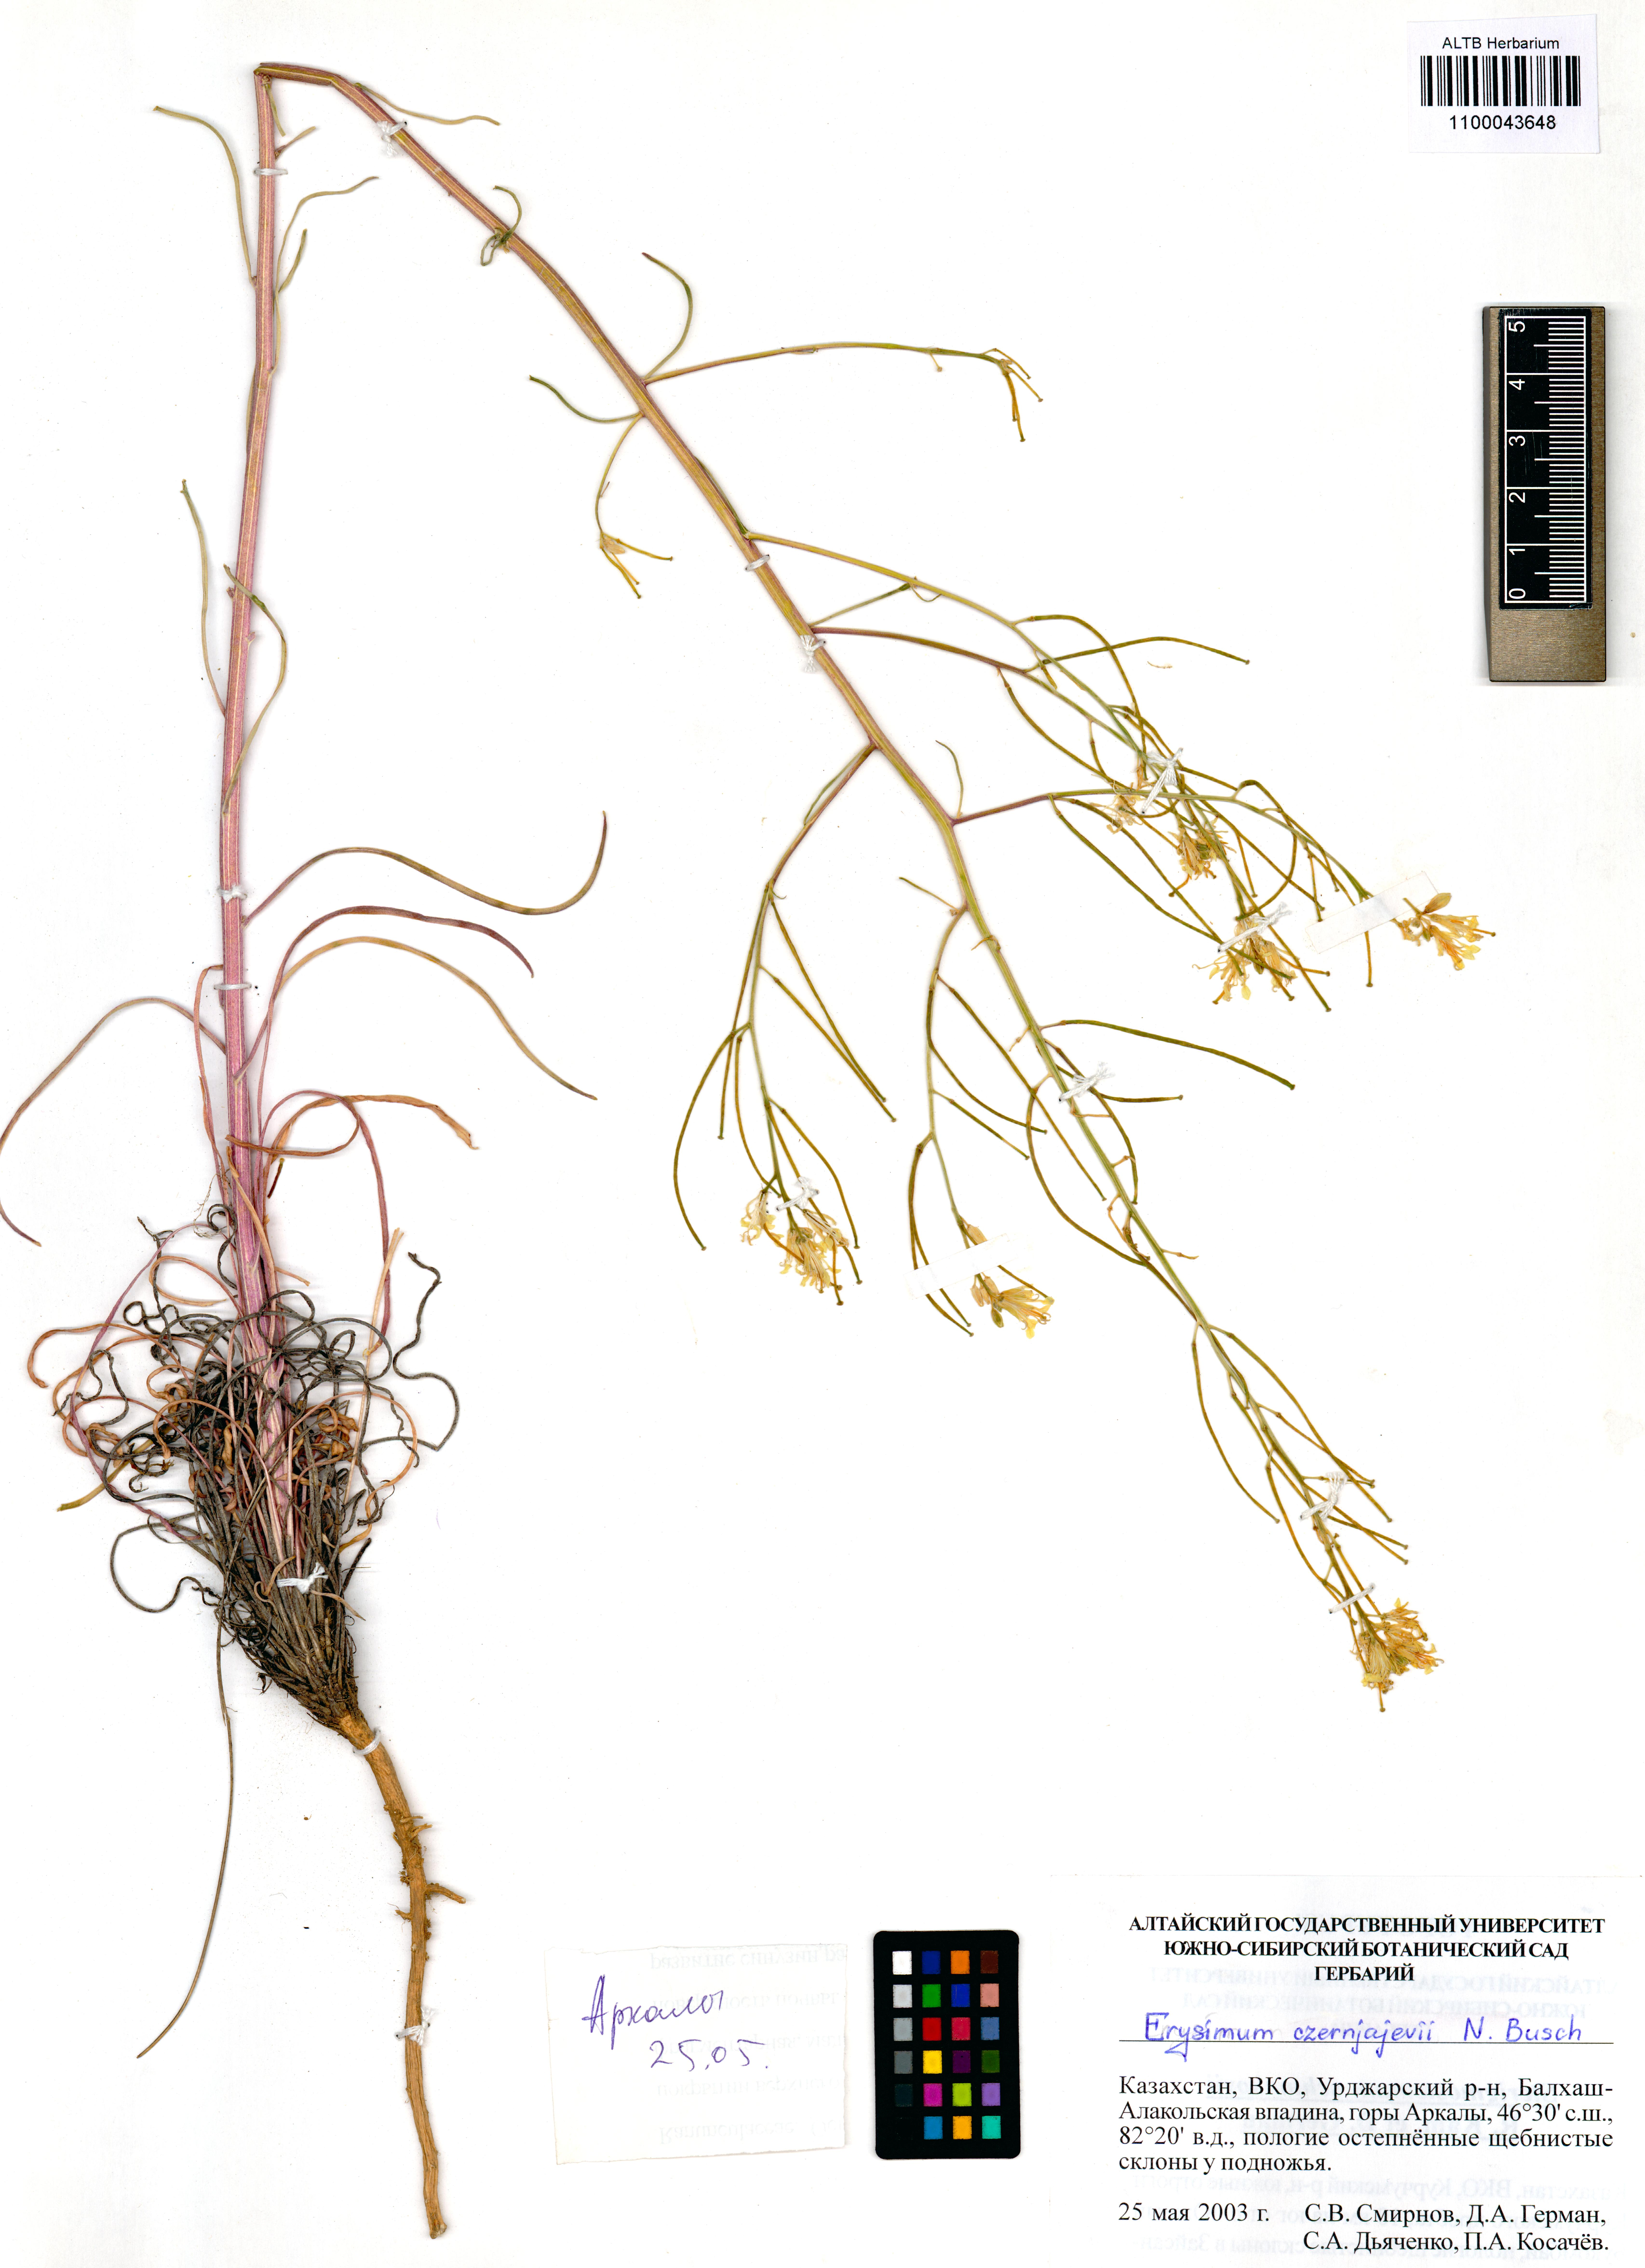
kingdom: Plantae
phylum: Tracheophyta
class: Magnoliopsida
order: Brassicales
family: Brassicaceae
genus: Erysimum
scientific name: Erysimum czernjajevii
